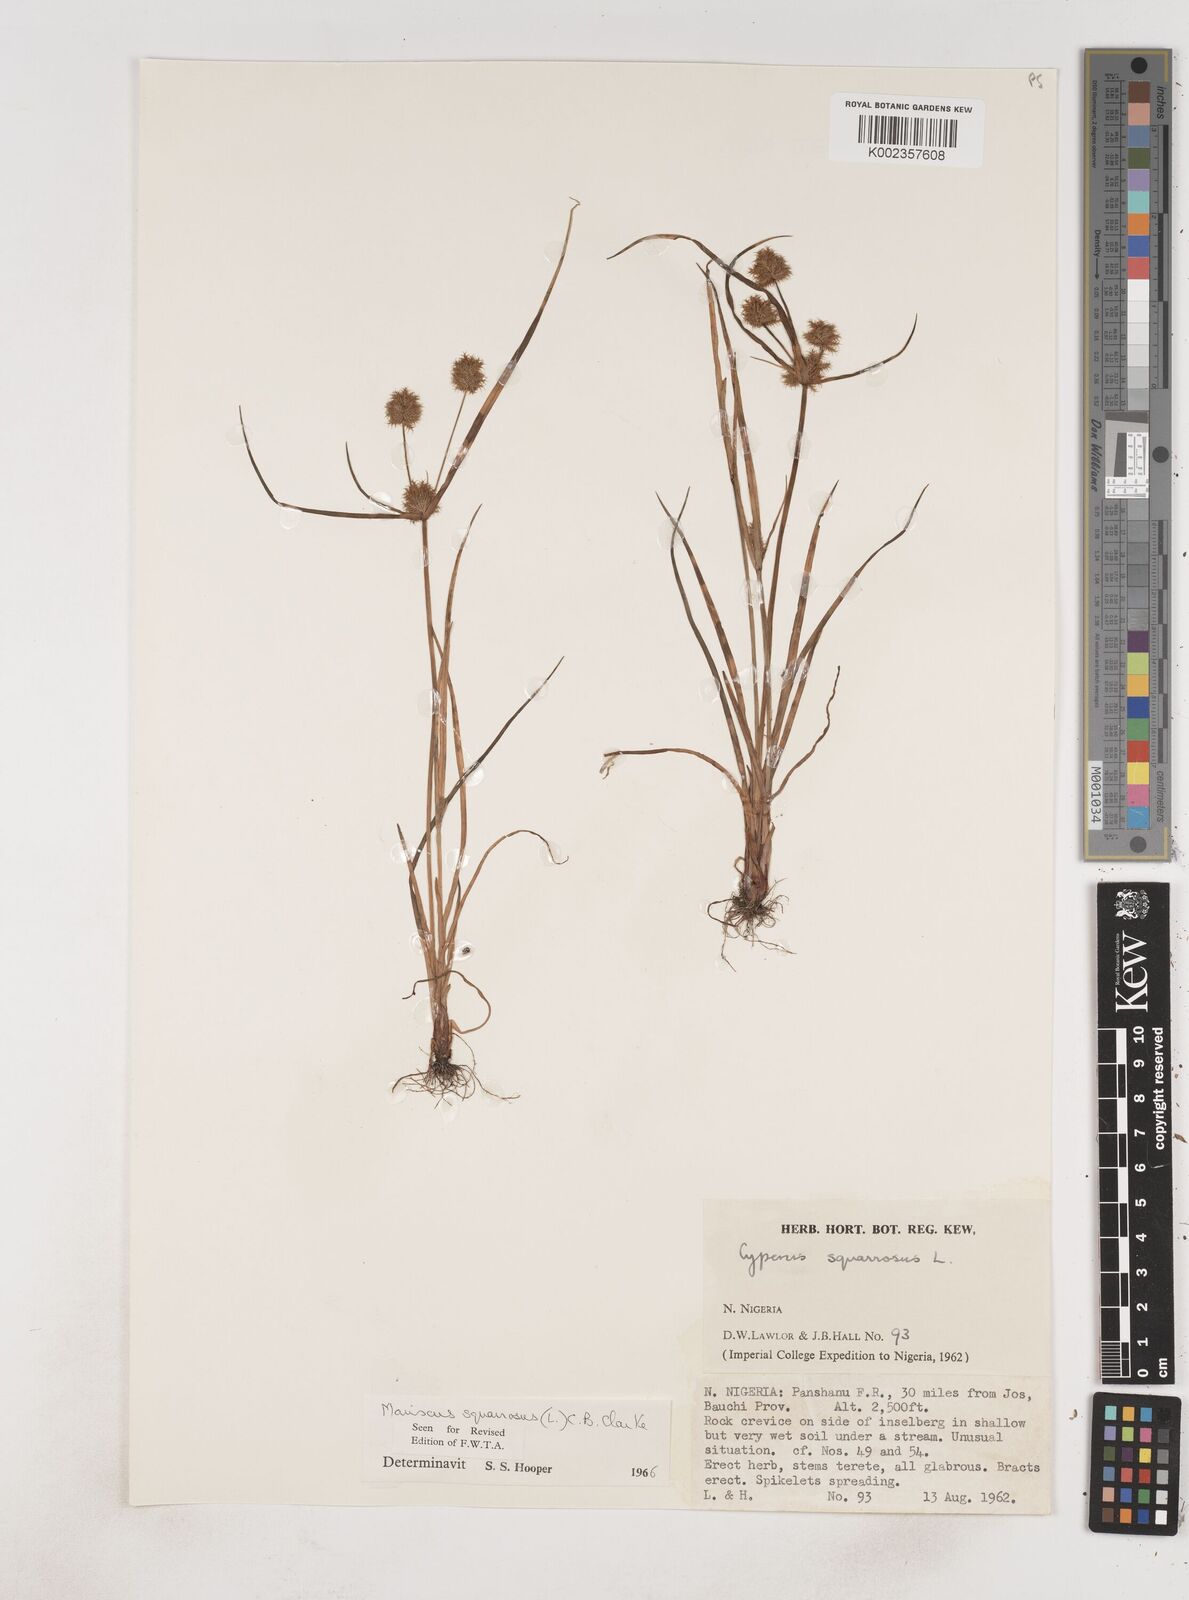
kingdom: Plantae
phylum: Tracheophyta
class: Liliopsida
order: Poales
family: Cyperaceae
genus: Cyperus
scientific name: Cyperus squarrosus
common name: Awned cyperus
